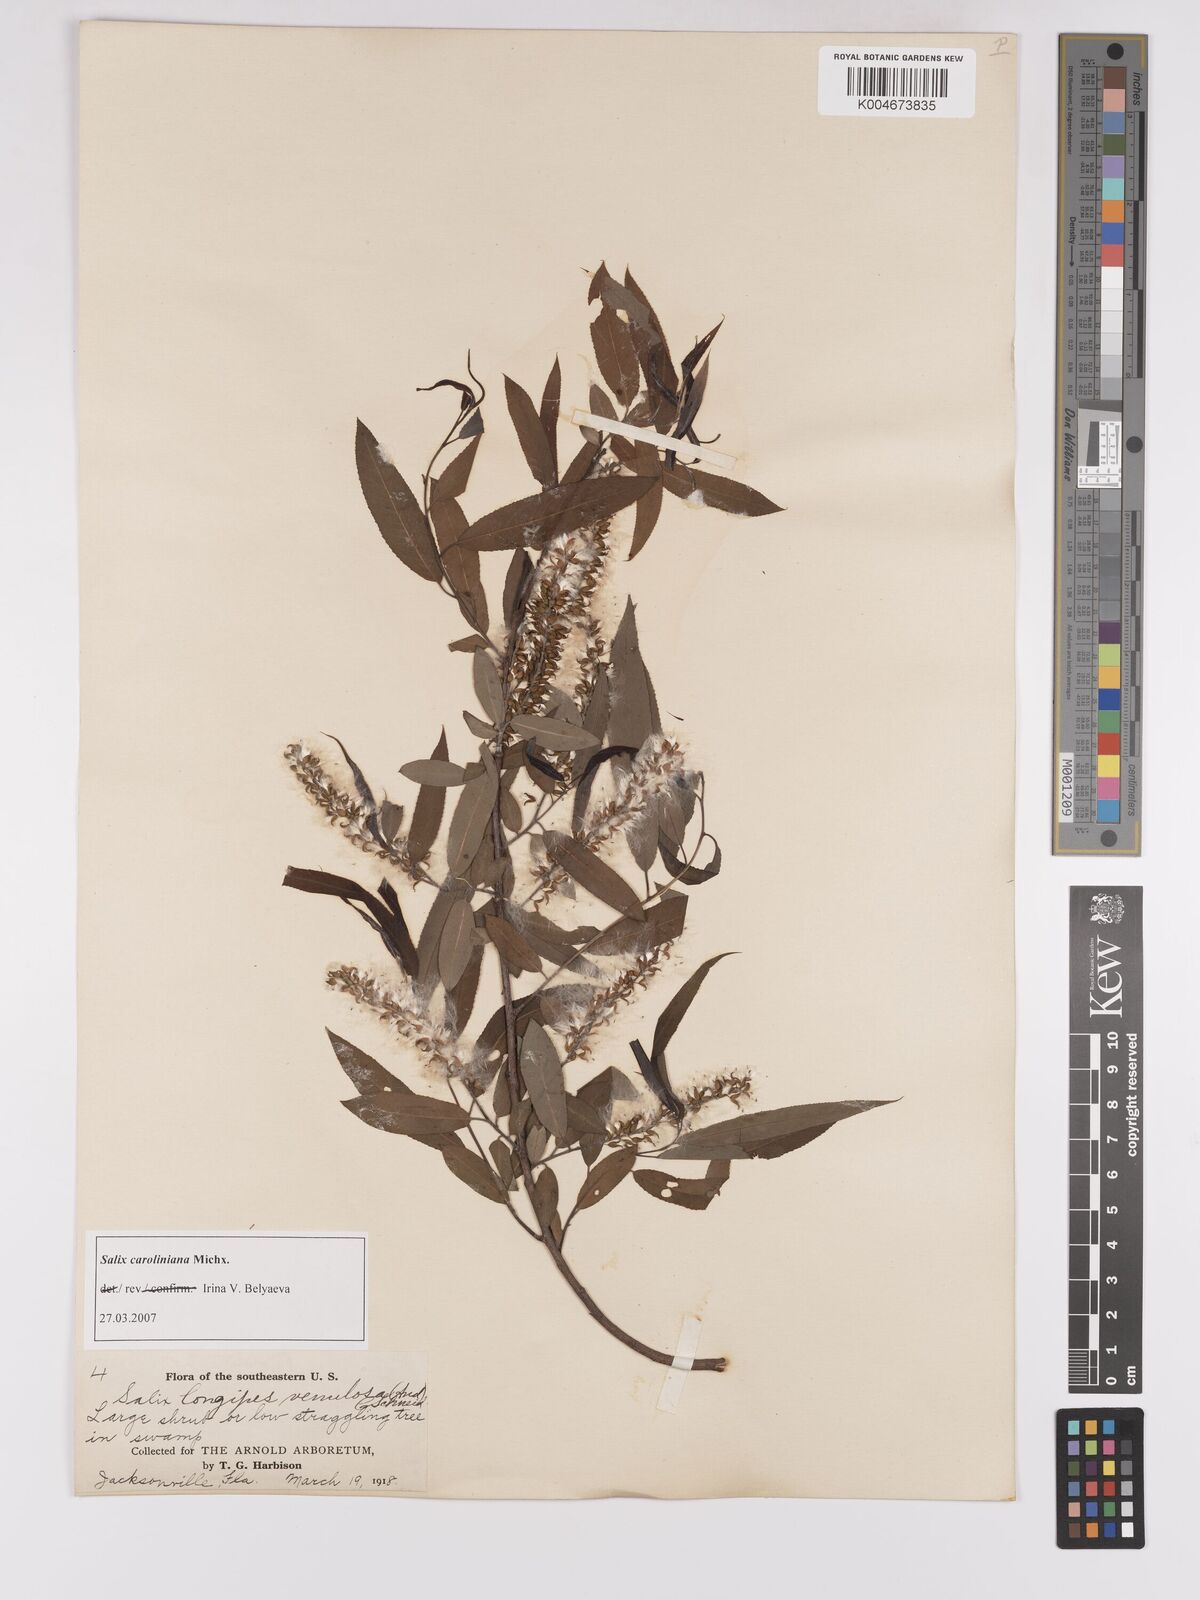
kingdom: Plantae
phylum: Tracheophyta
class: Magnoliopsida
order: Malpighiales
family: Salicaceae
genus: Salix
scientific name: Salix caroliniana
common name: Carolina willow
